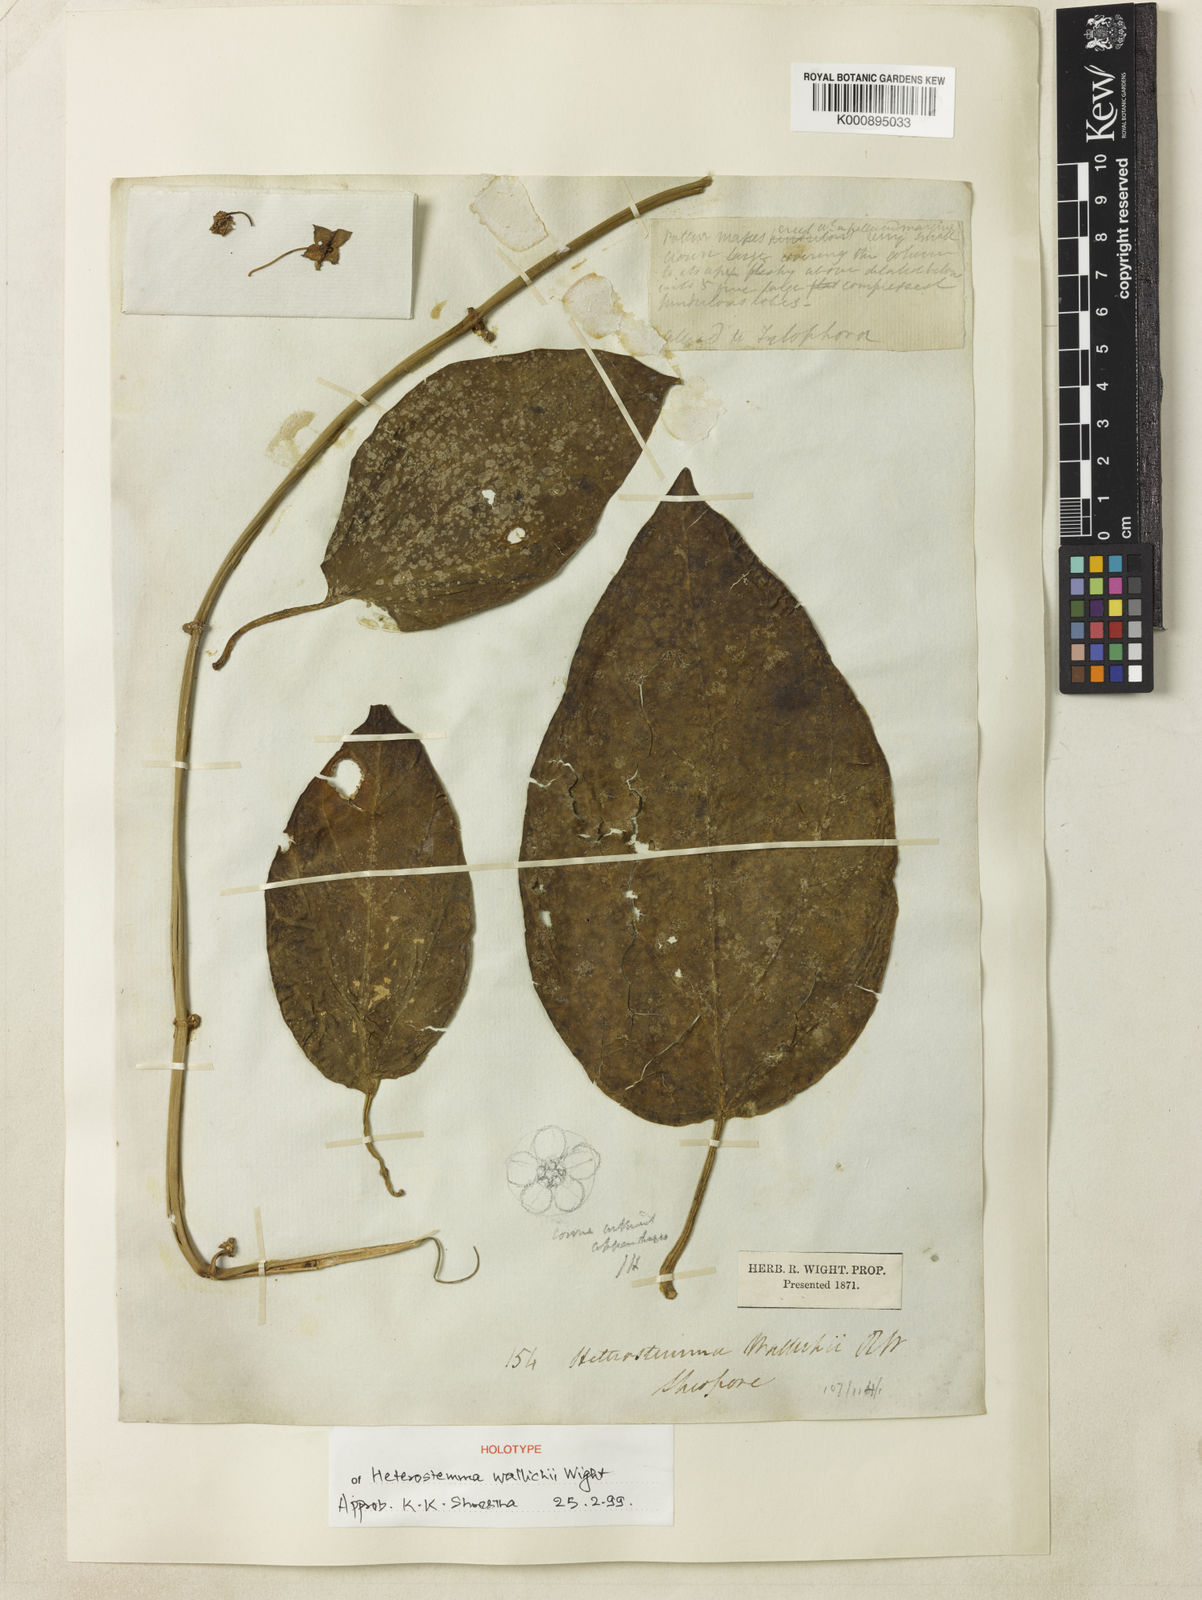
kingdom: Plantae
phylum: Tracheophyta
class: Magnoliopsida
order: Gentianales
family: Apocynaceae
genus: Heterostemma
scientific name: Heterostemma wallichii
